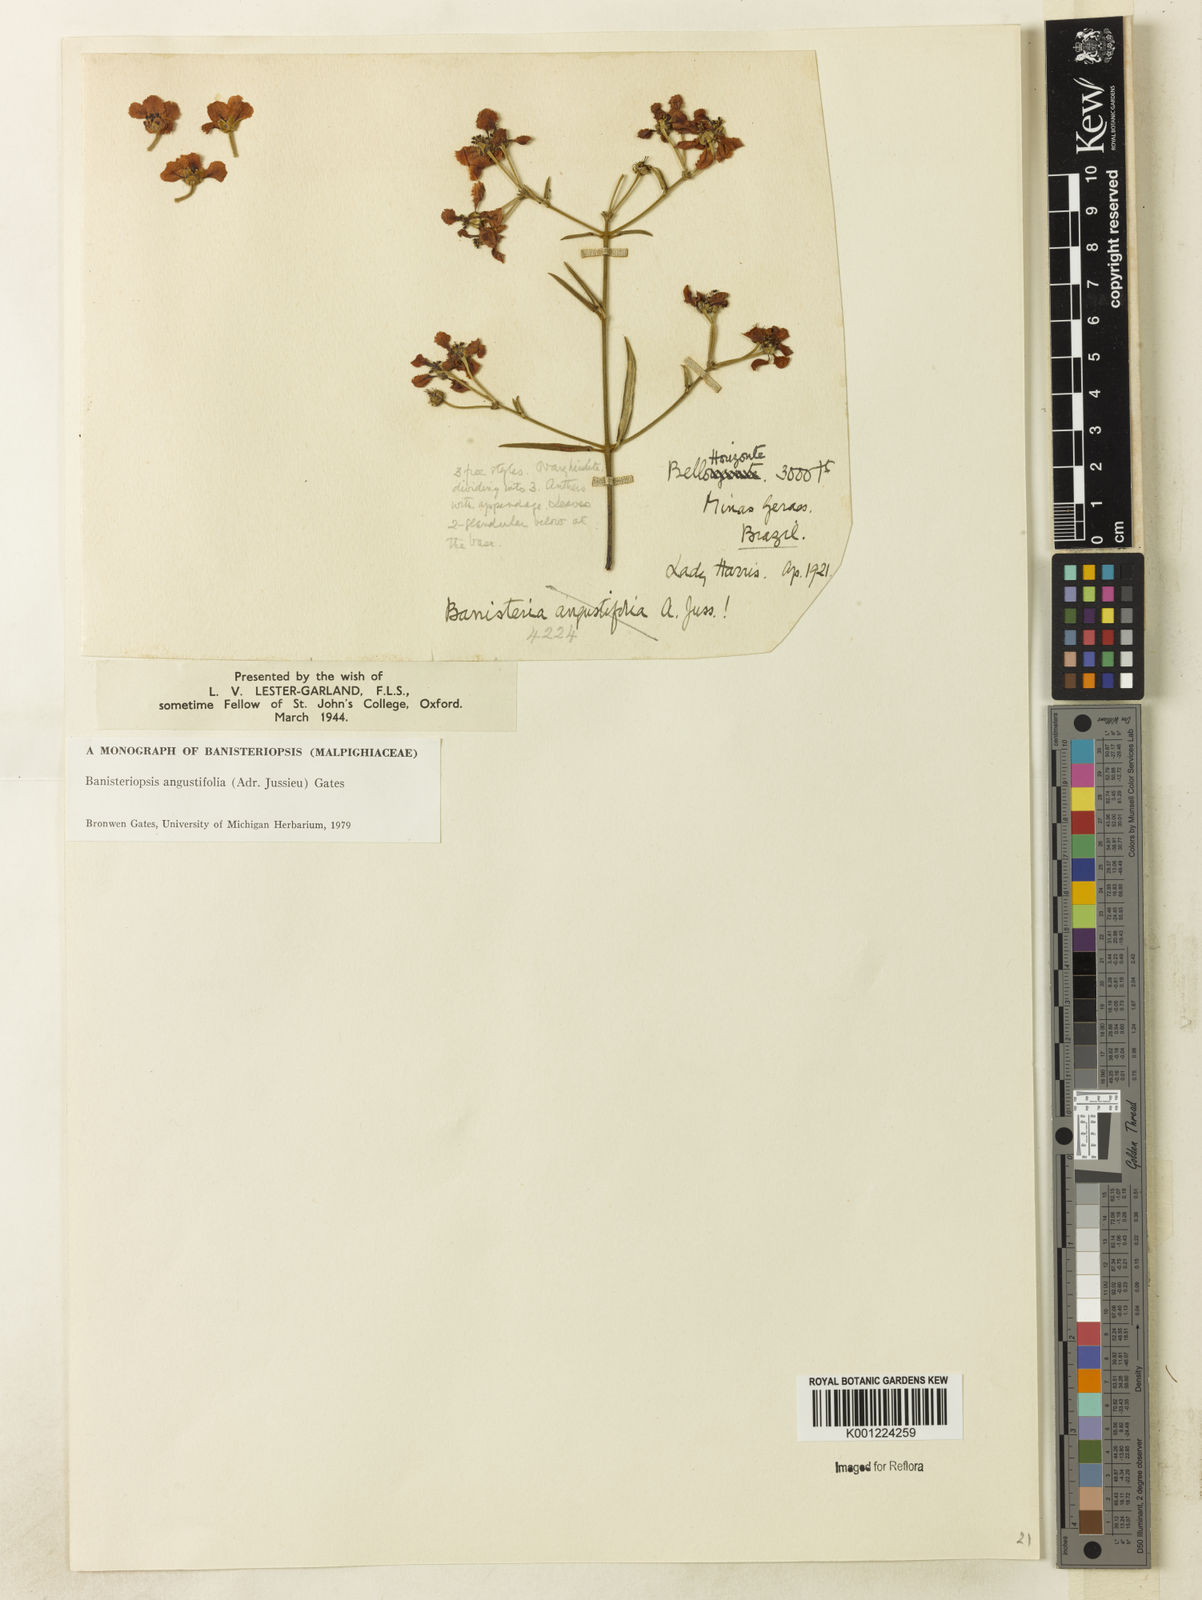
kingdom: Plantae
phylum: Tracheophyta
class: Magnoliopsida
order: Malpighiales
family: Malpighiaceae
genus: Banisteriopsis
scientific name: Banisteriopsis angustifolia
